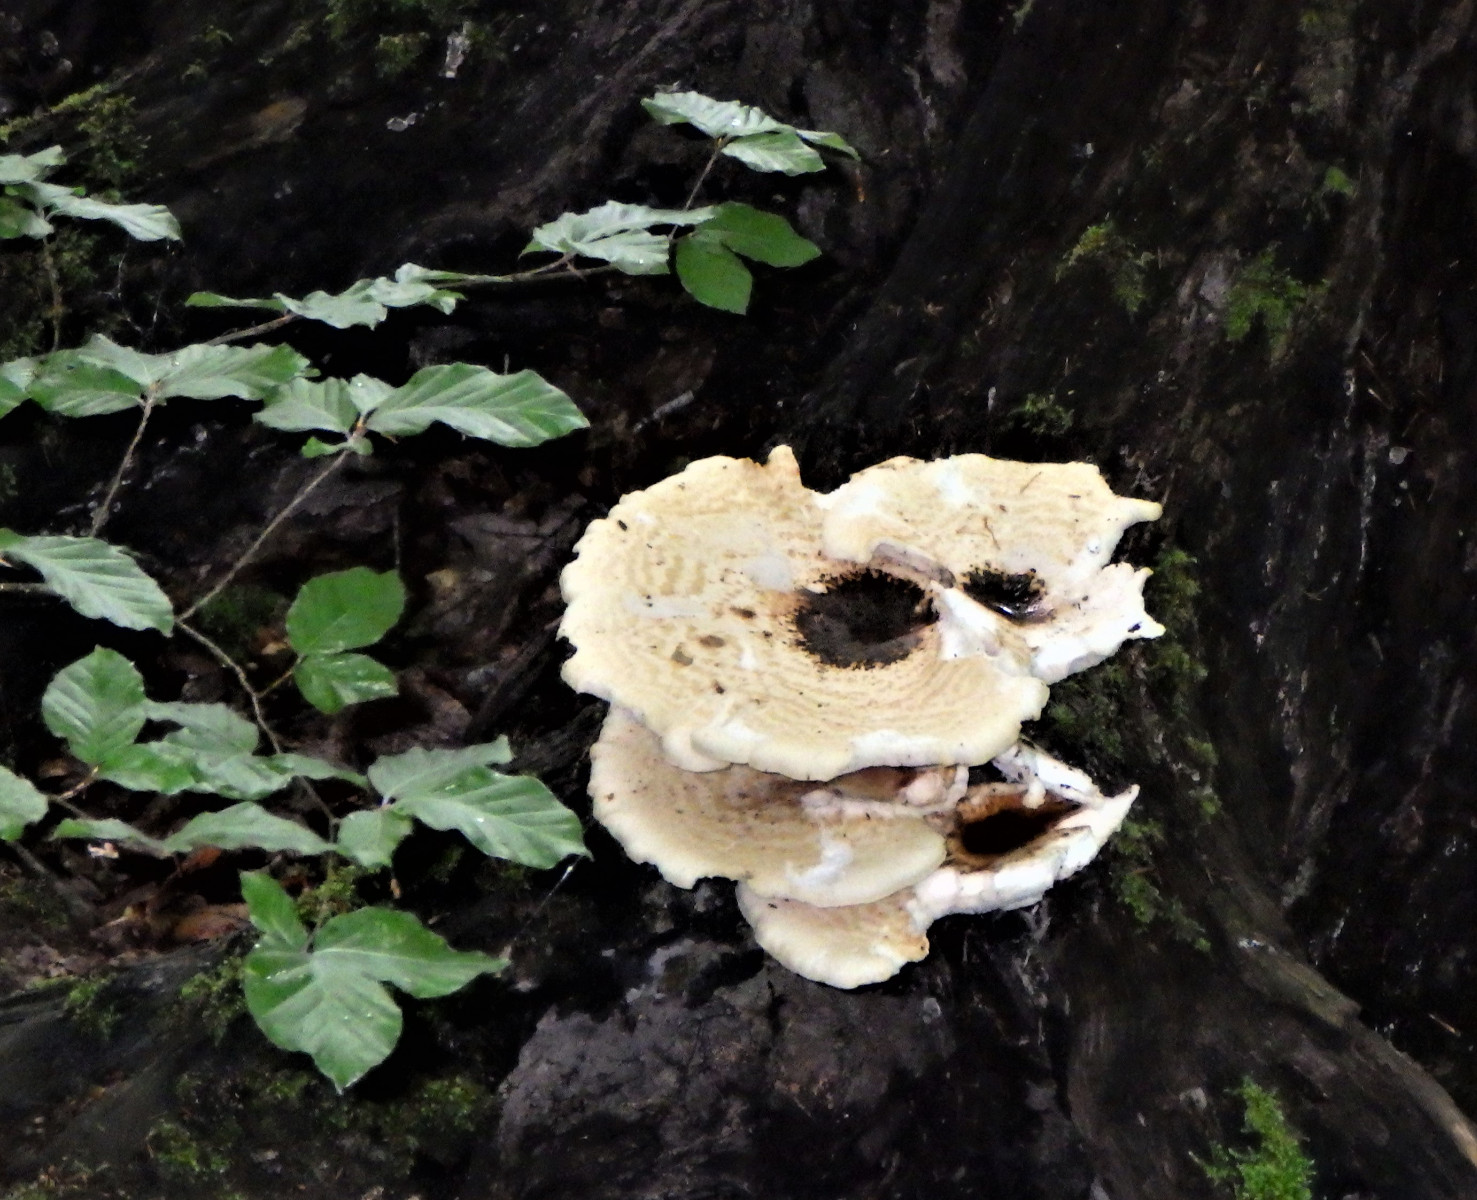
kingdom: Fungi
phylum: Basidiomycota
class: Agaricomycetes
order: Polyporales
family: Polyporaceae
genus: Cerioporus
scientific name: Cerioporus squamosus
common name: skællet stilkporesvamp
